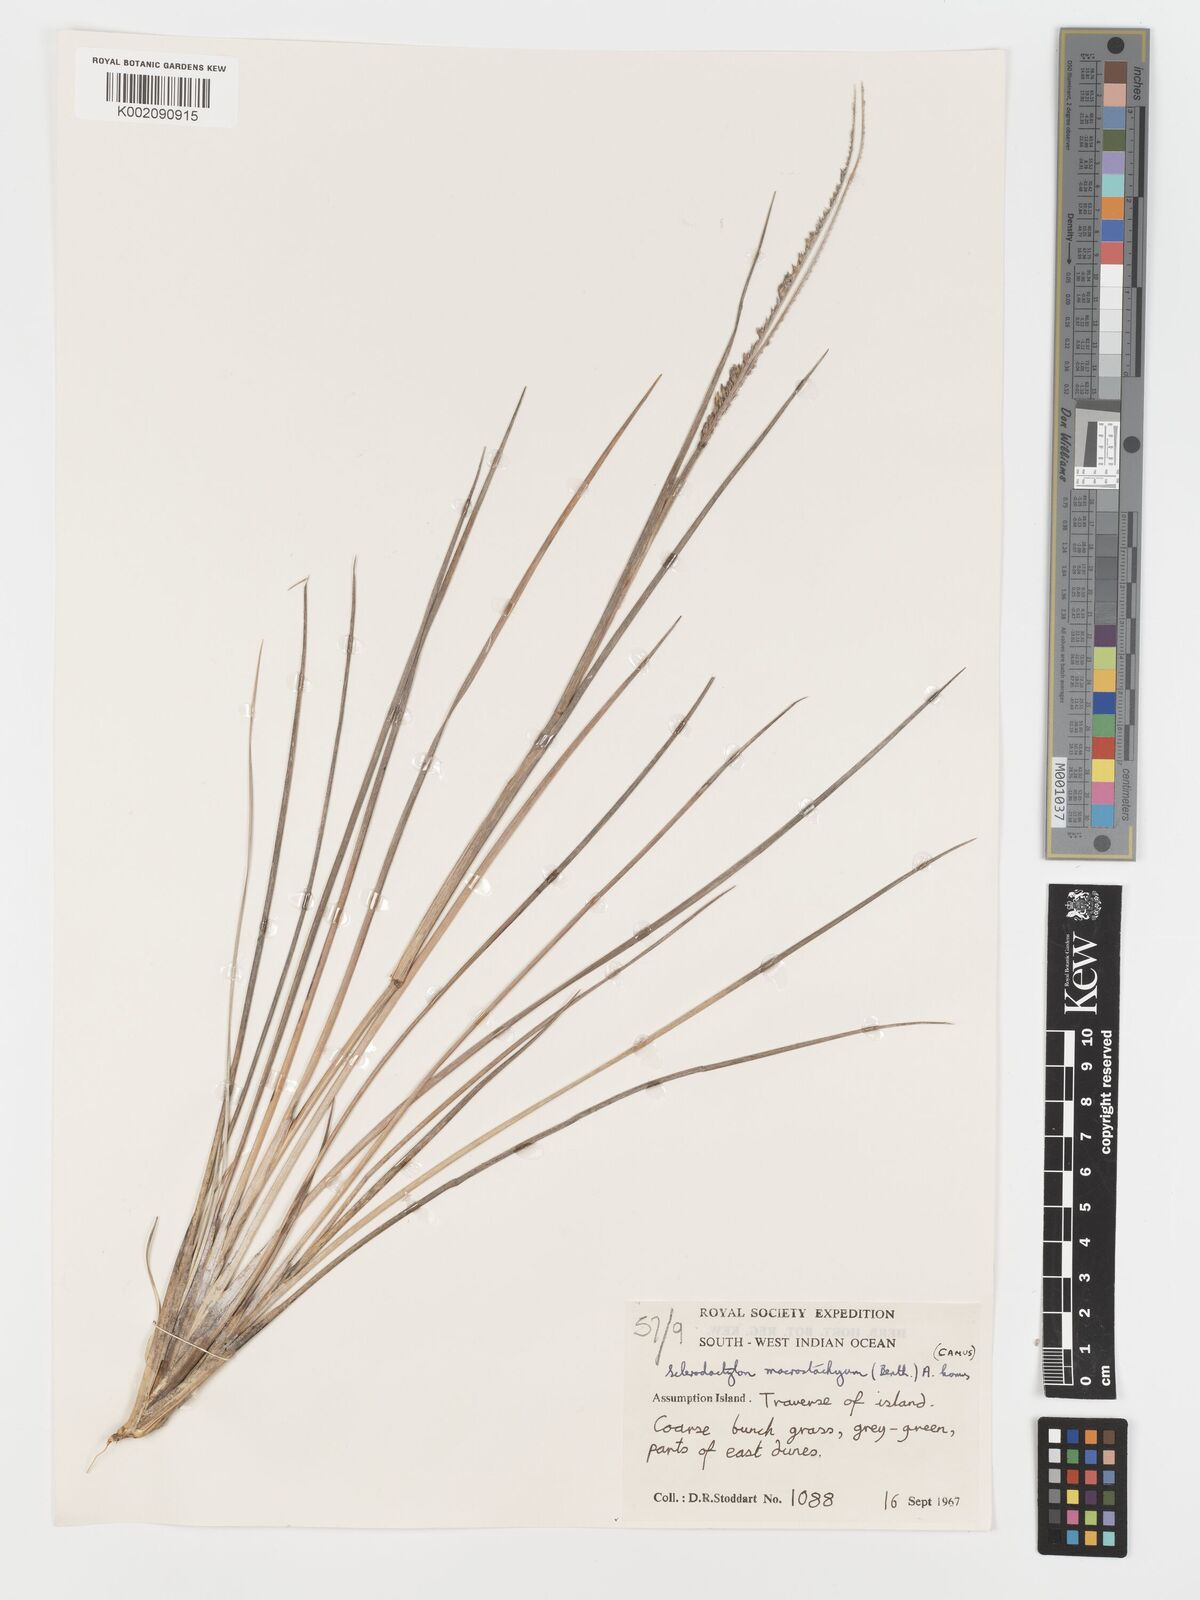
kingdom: Plantae
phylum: Tracheophyta
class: Liliopsida
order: Poales
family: Poaceae
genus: Sclerodactylon
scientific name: Sclerodactylon macrostachyum
